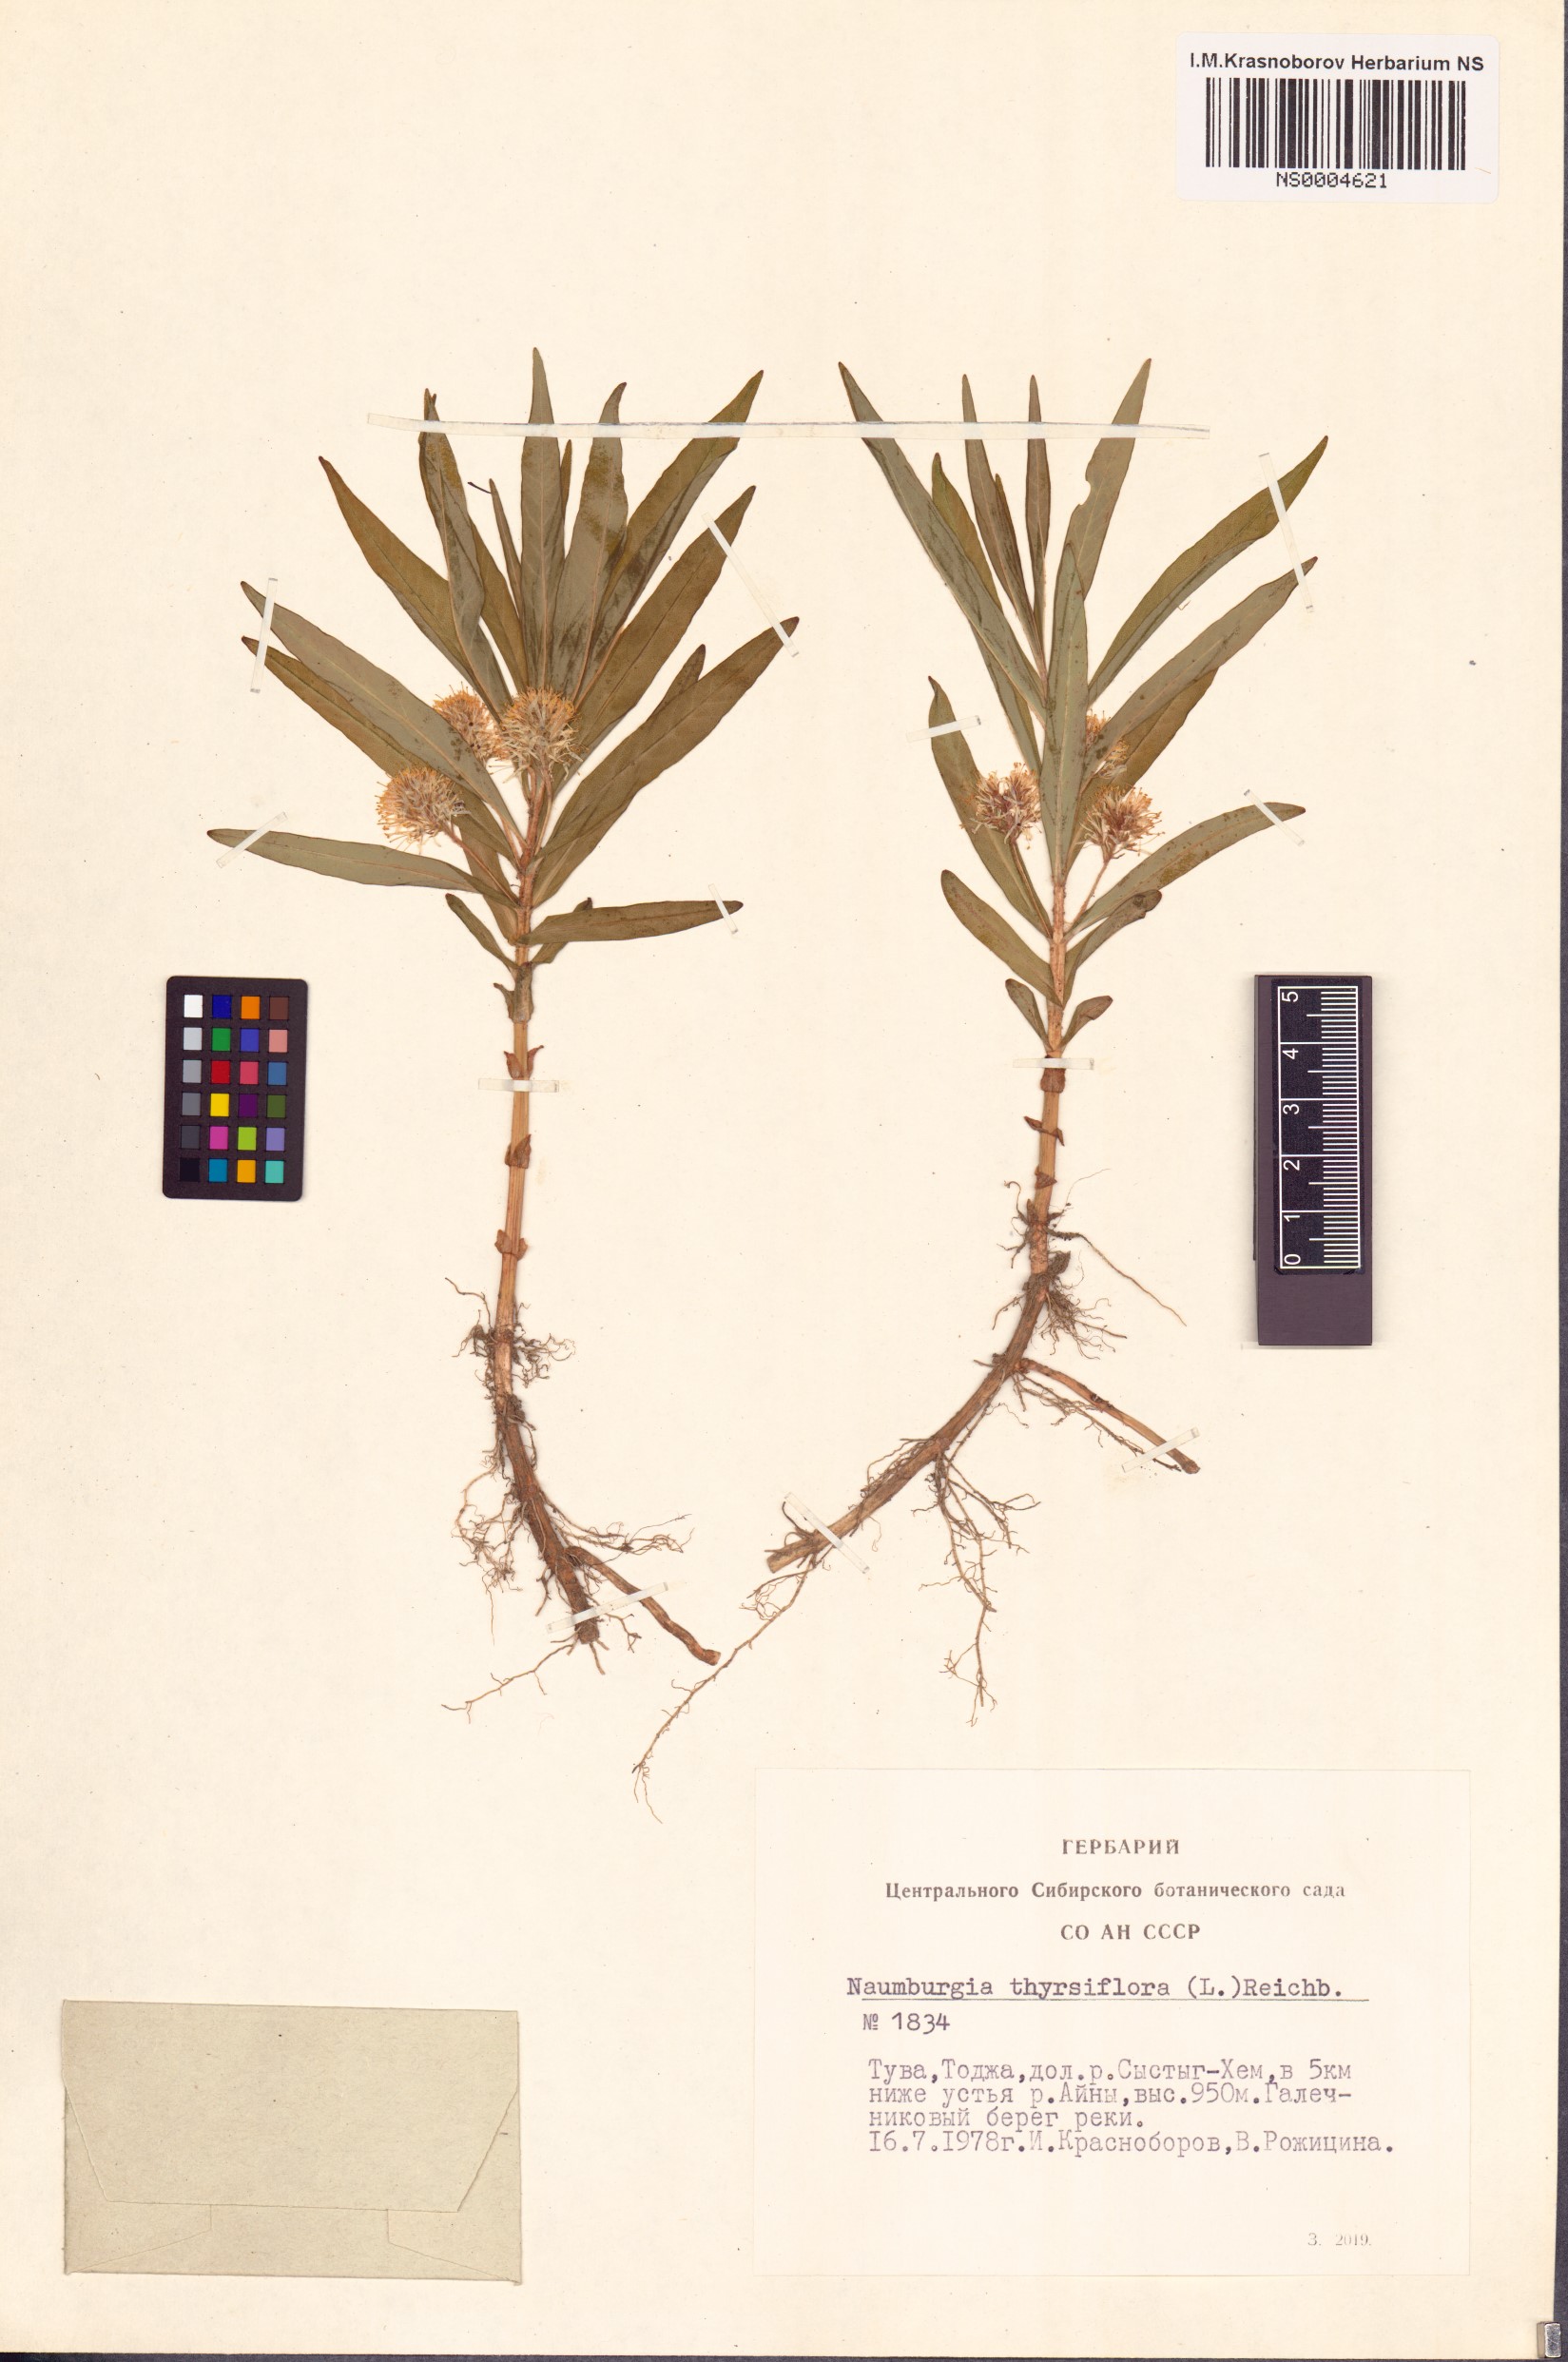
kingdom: Plantae
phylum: Tracheophyta
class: Magnoliopsida
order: Ericales
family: Primulaceae
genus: Lysimachia
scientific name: Lysimachia thyrsiflora
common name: Tufted loosestrife
